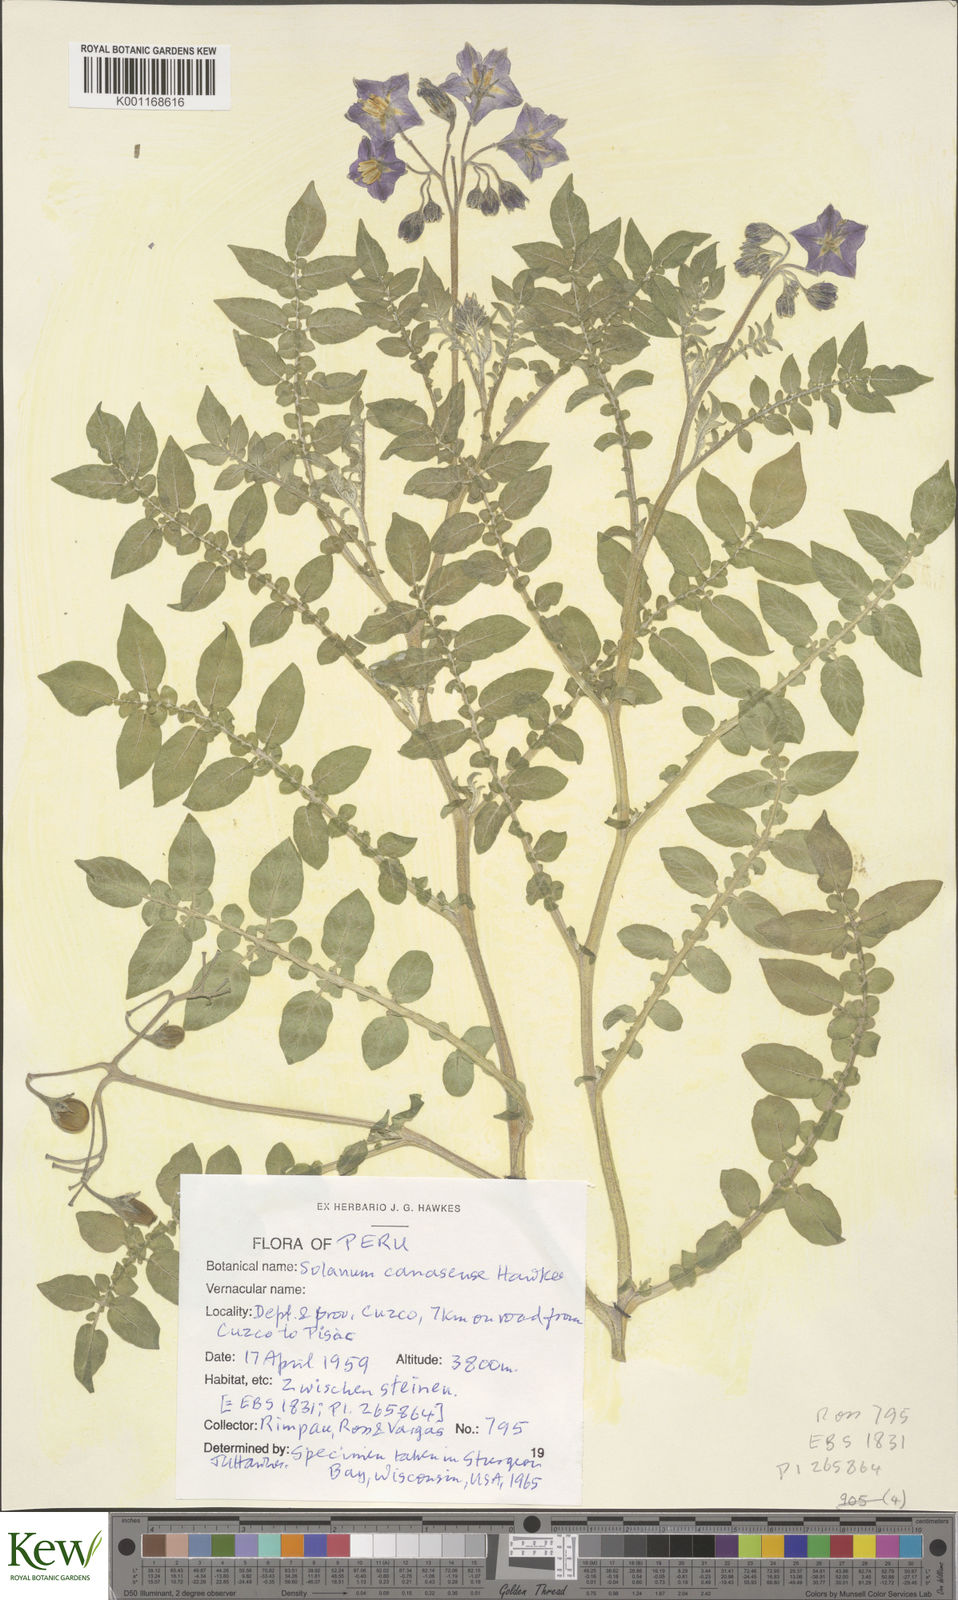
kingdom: Plantae
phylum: Tracheophyta
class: Magnoliopsida
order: Solanales
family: Solanaceae
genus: Solanum
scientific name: Solanum candolleanum
